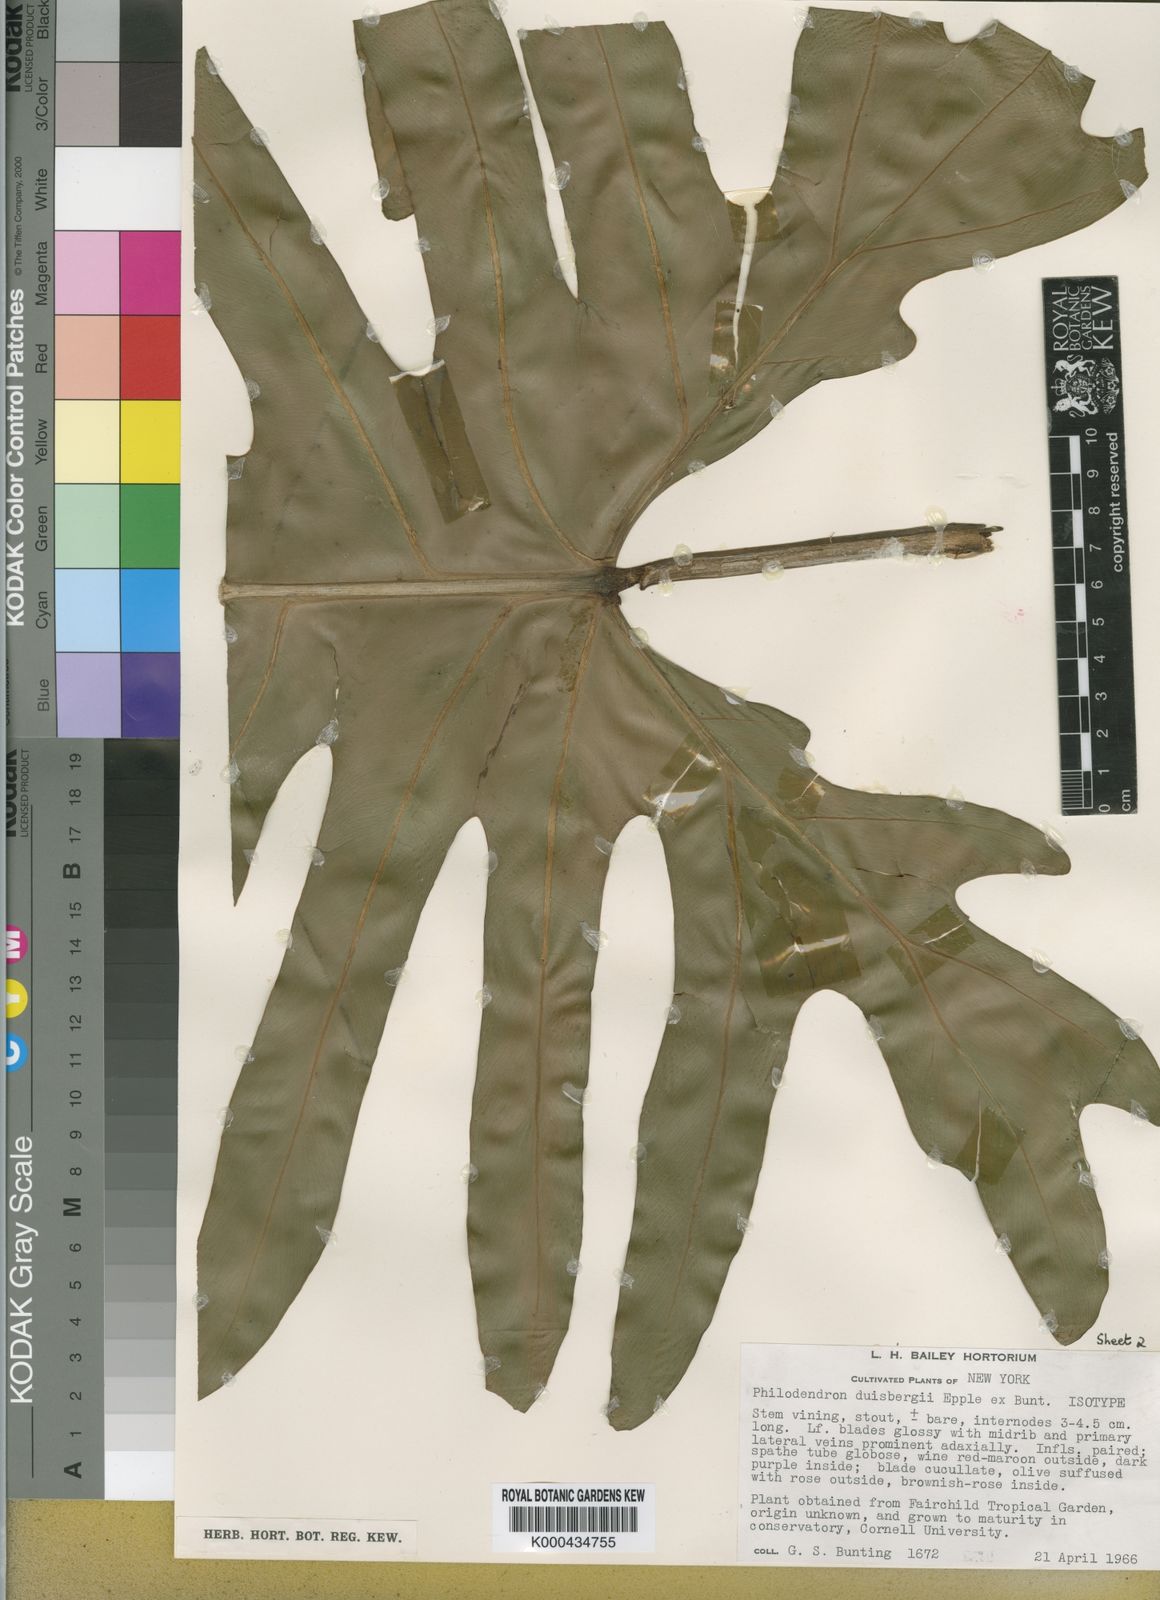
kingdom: Plantae
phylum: Tracheophyta
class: Liliopsida
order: Alismatales
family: Araceae
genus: Philodendron
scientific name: Philodendron fendleri
